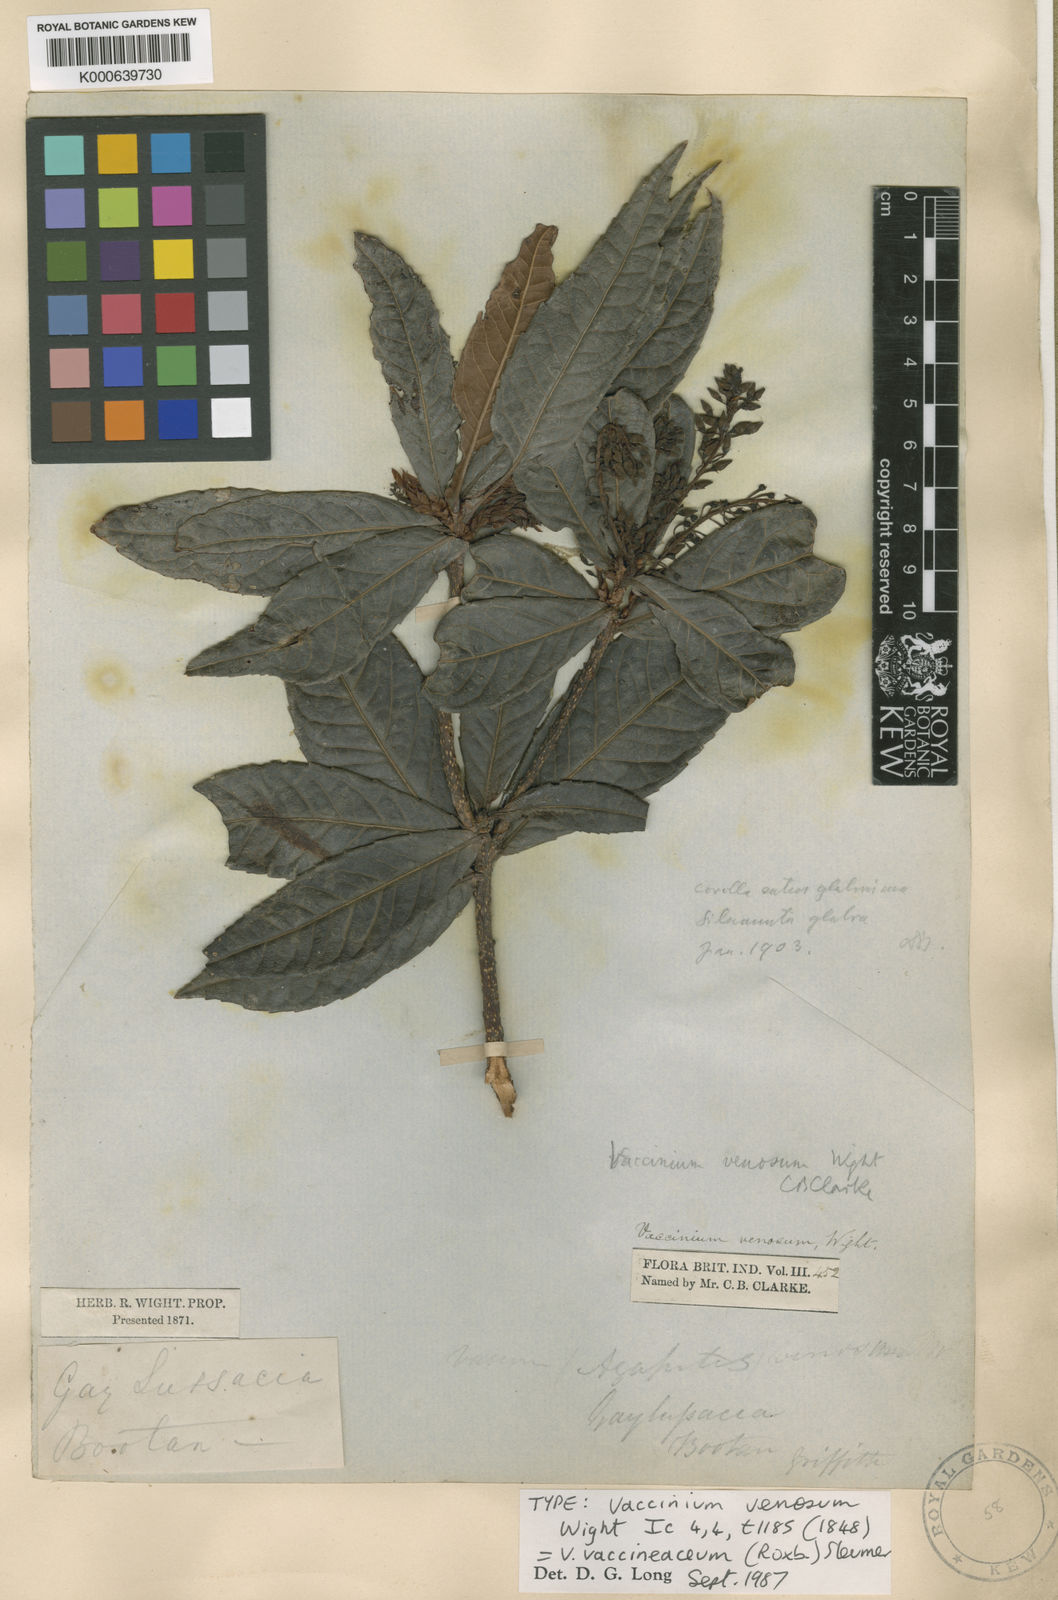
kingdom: Plantae
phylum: Tracheophyta
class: Magnoliopsida
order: Ericales
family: Ericaceae
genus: Vaccinium
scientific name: Vaccinium venosum
